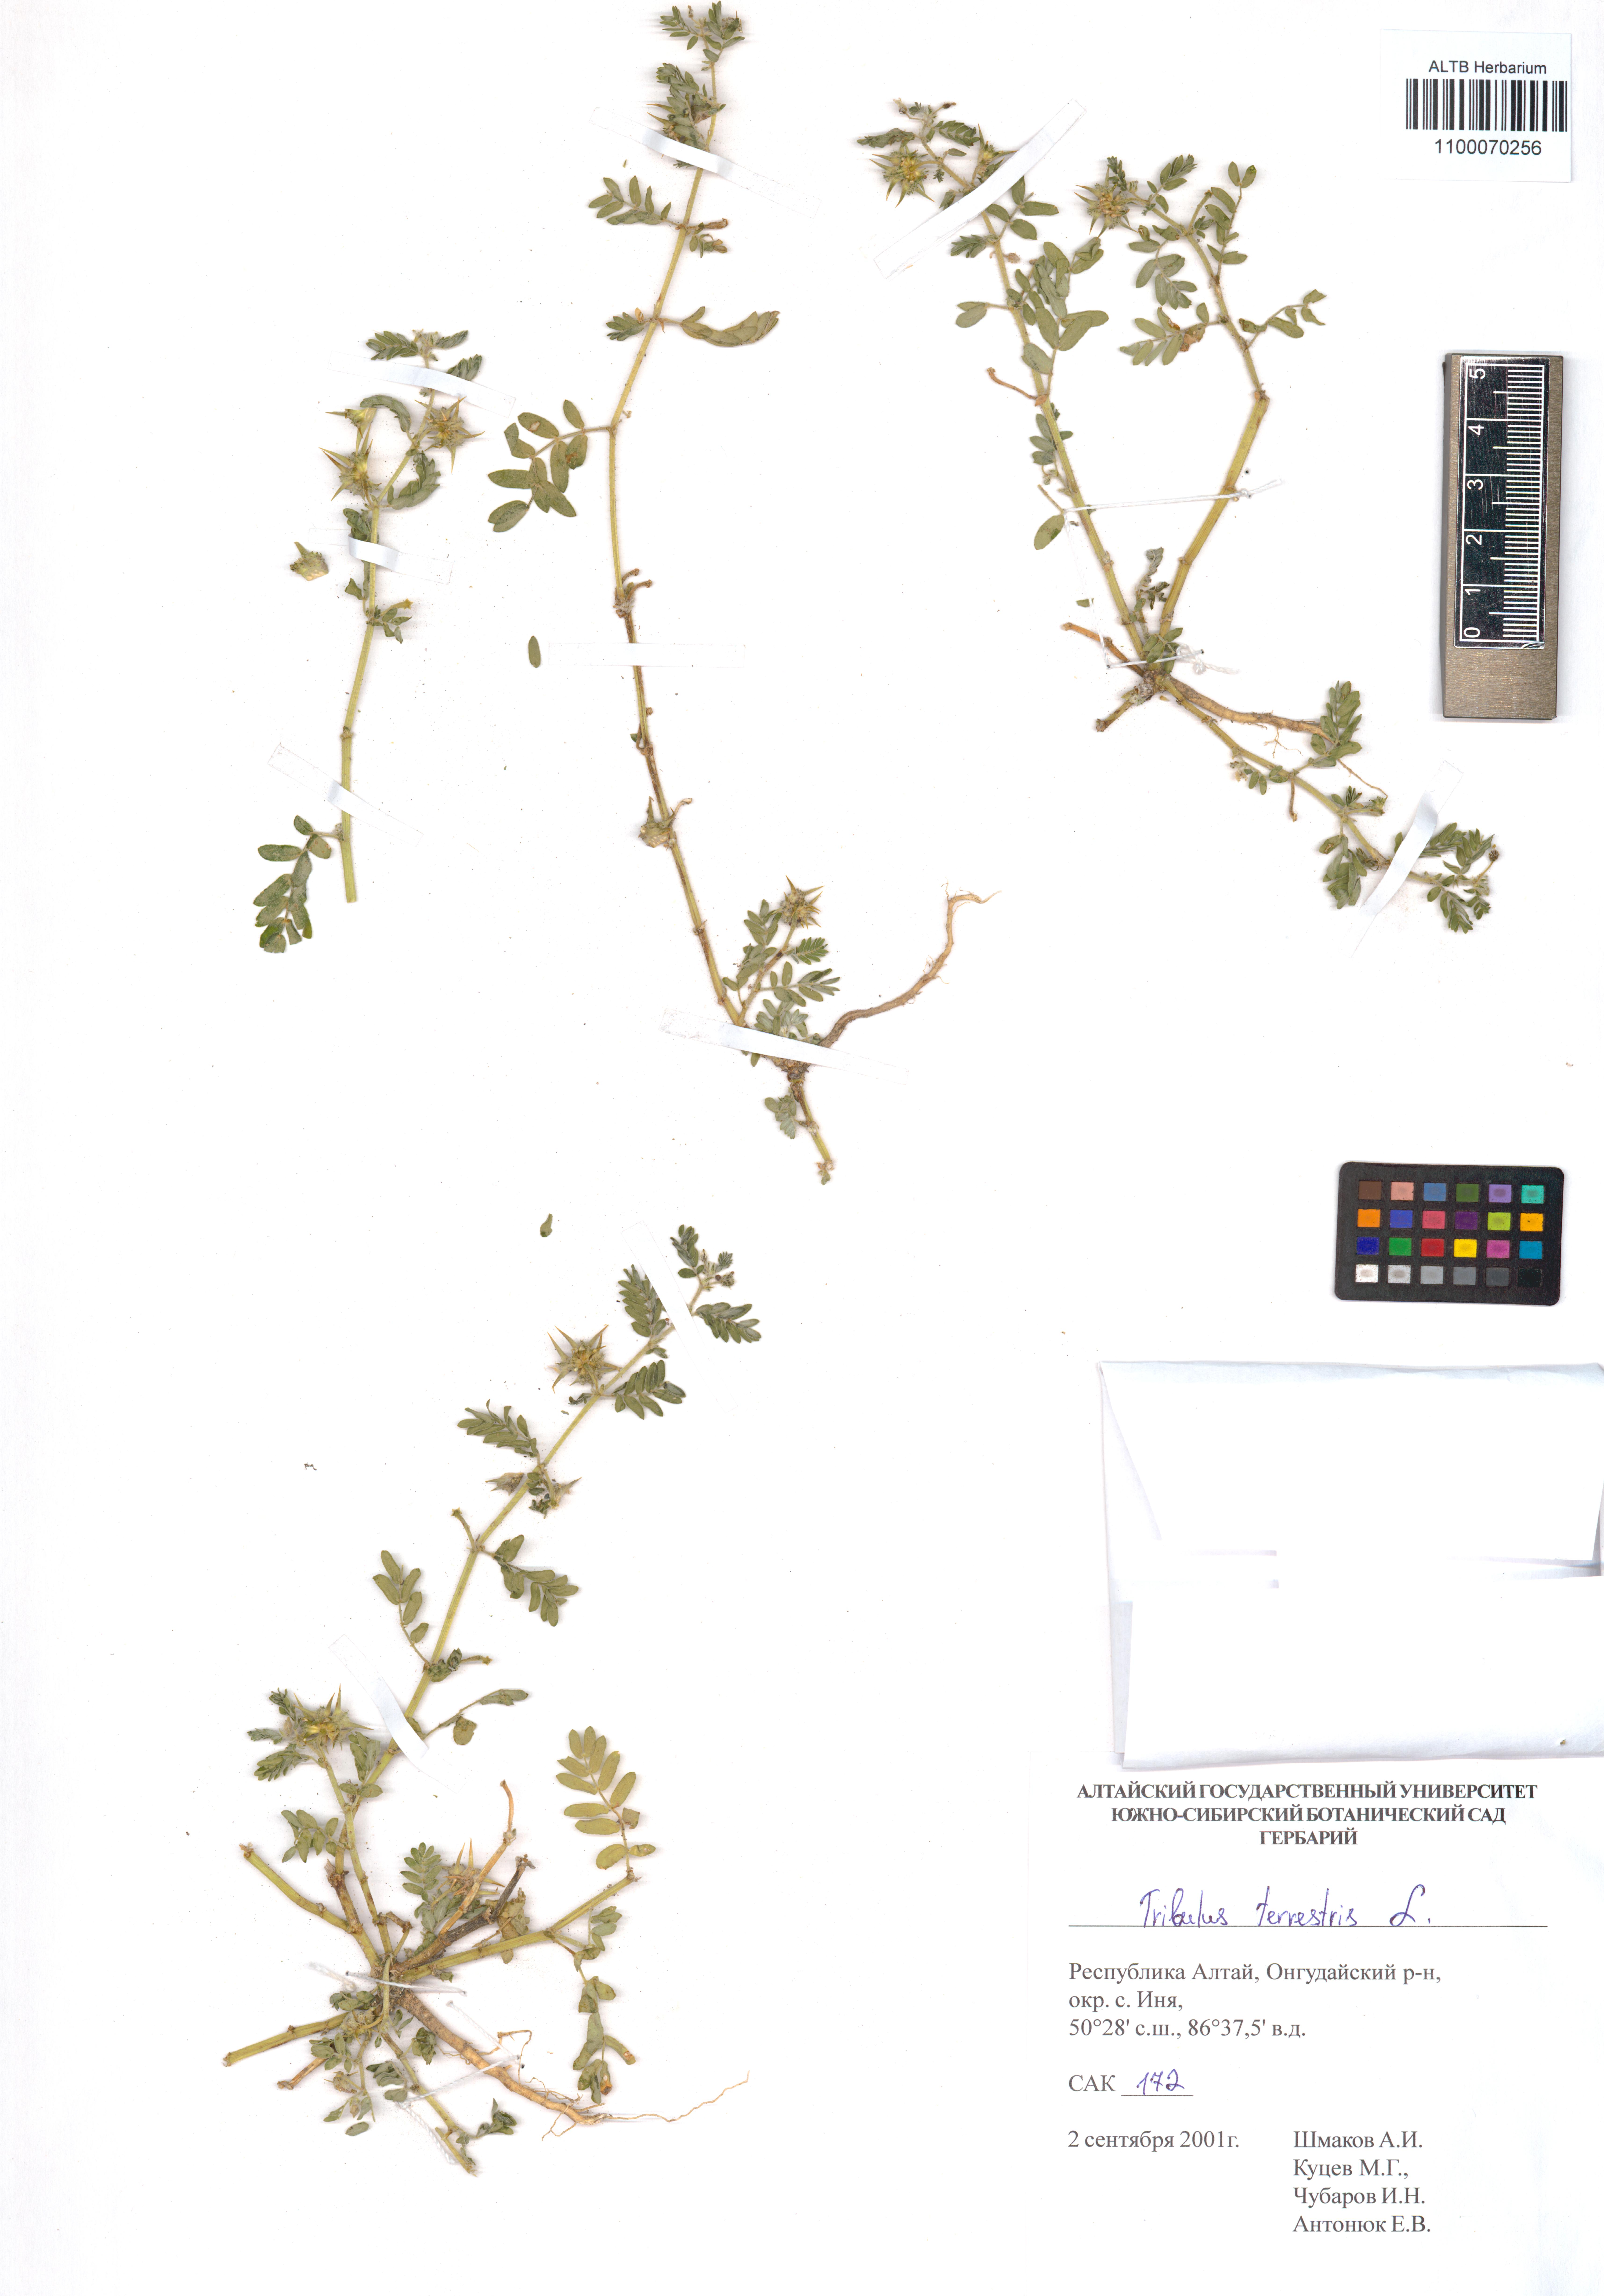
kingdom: Plantae
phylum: Tracheophyta
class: Magnoliopsida
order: Zygophyllales
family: Zygophyllaceae
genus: Tribulus
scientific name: Tribulus terrestris
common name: Puncturevine
